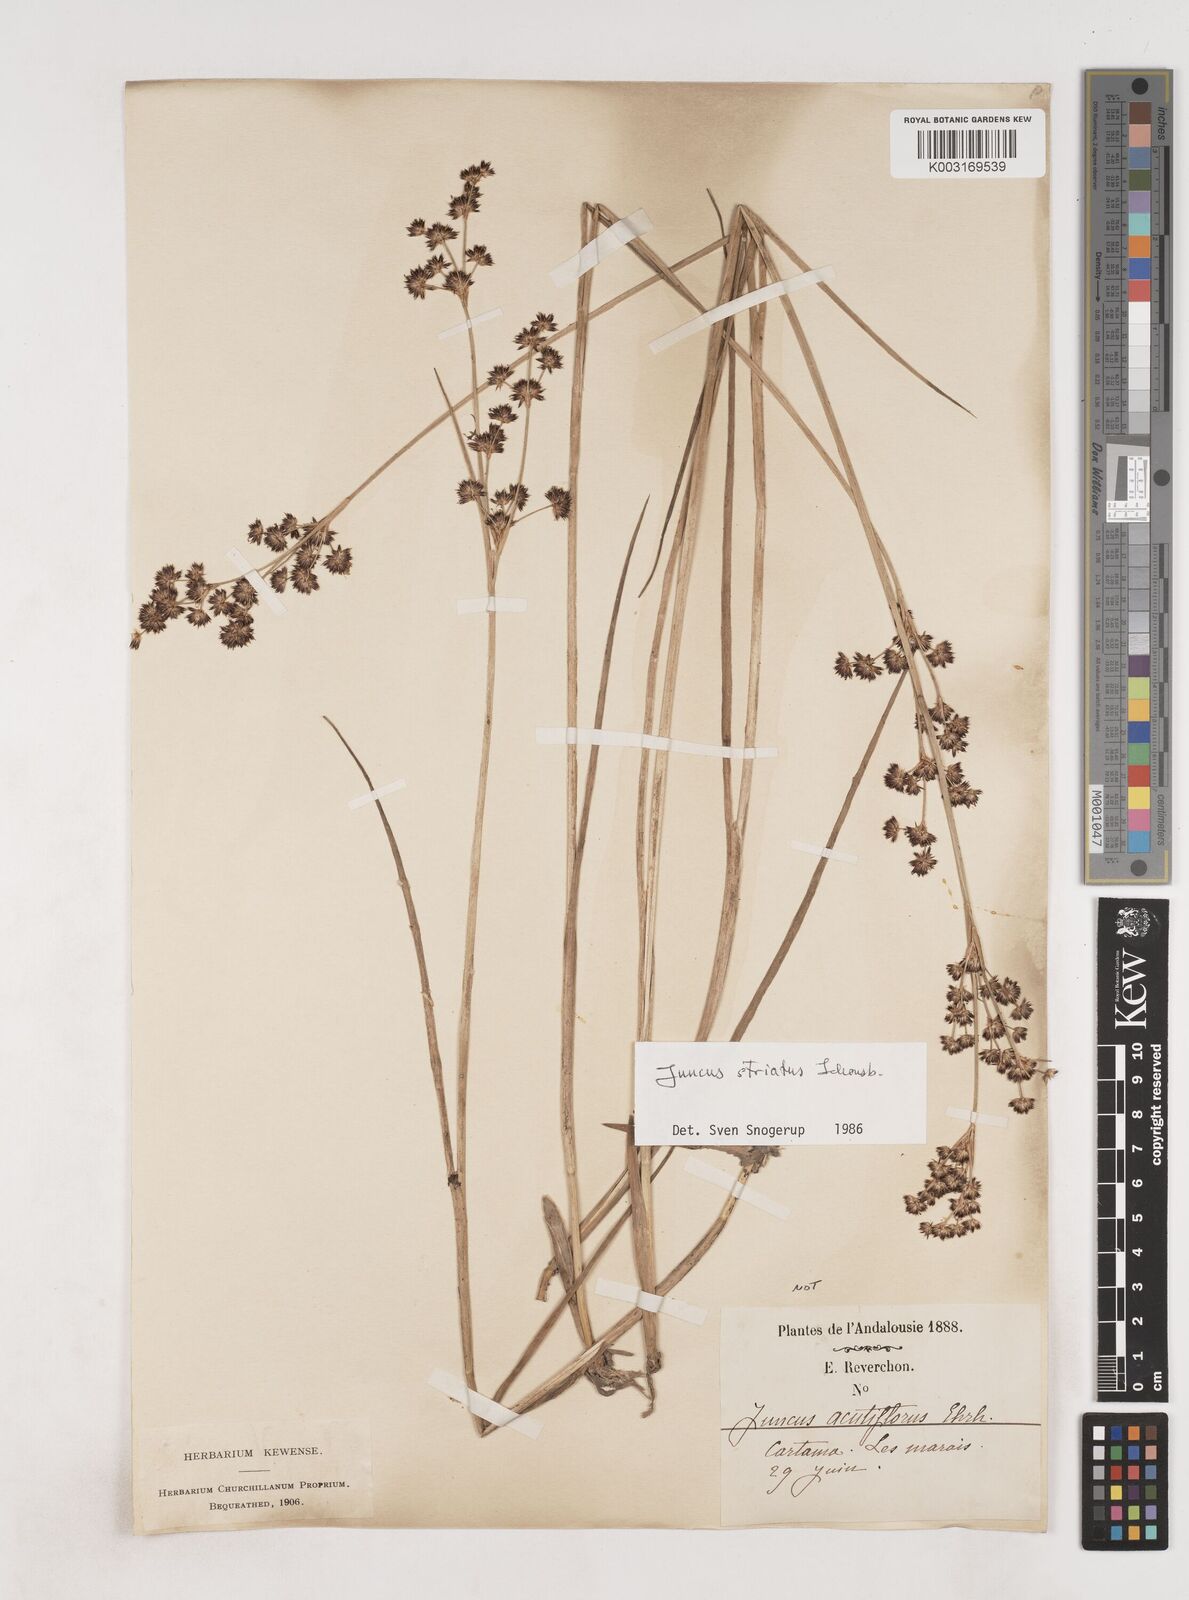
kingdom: Plantae
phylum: Tracheophyta
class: Liliopsida
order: Poales
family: Juncaceae
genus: Juncus
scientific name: Juncus striatus
